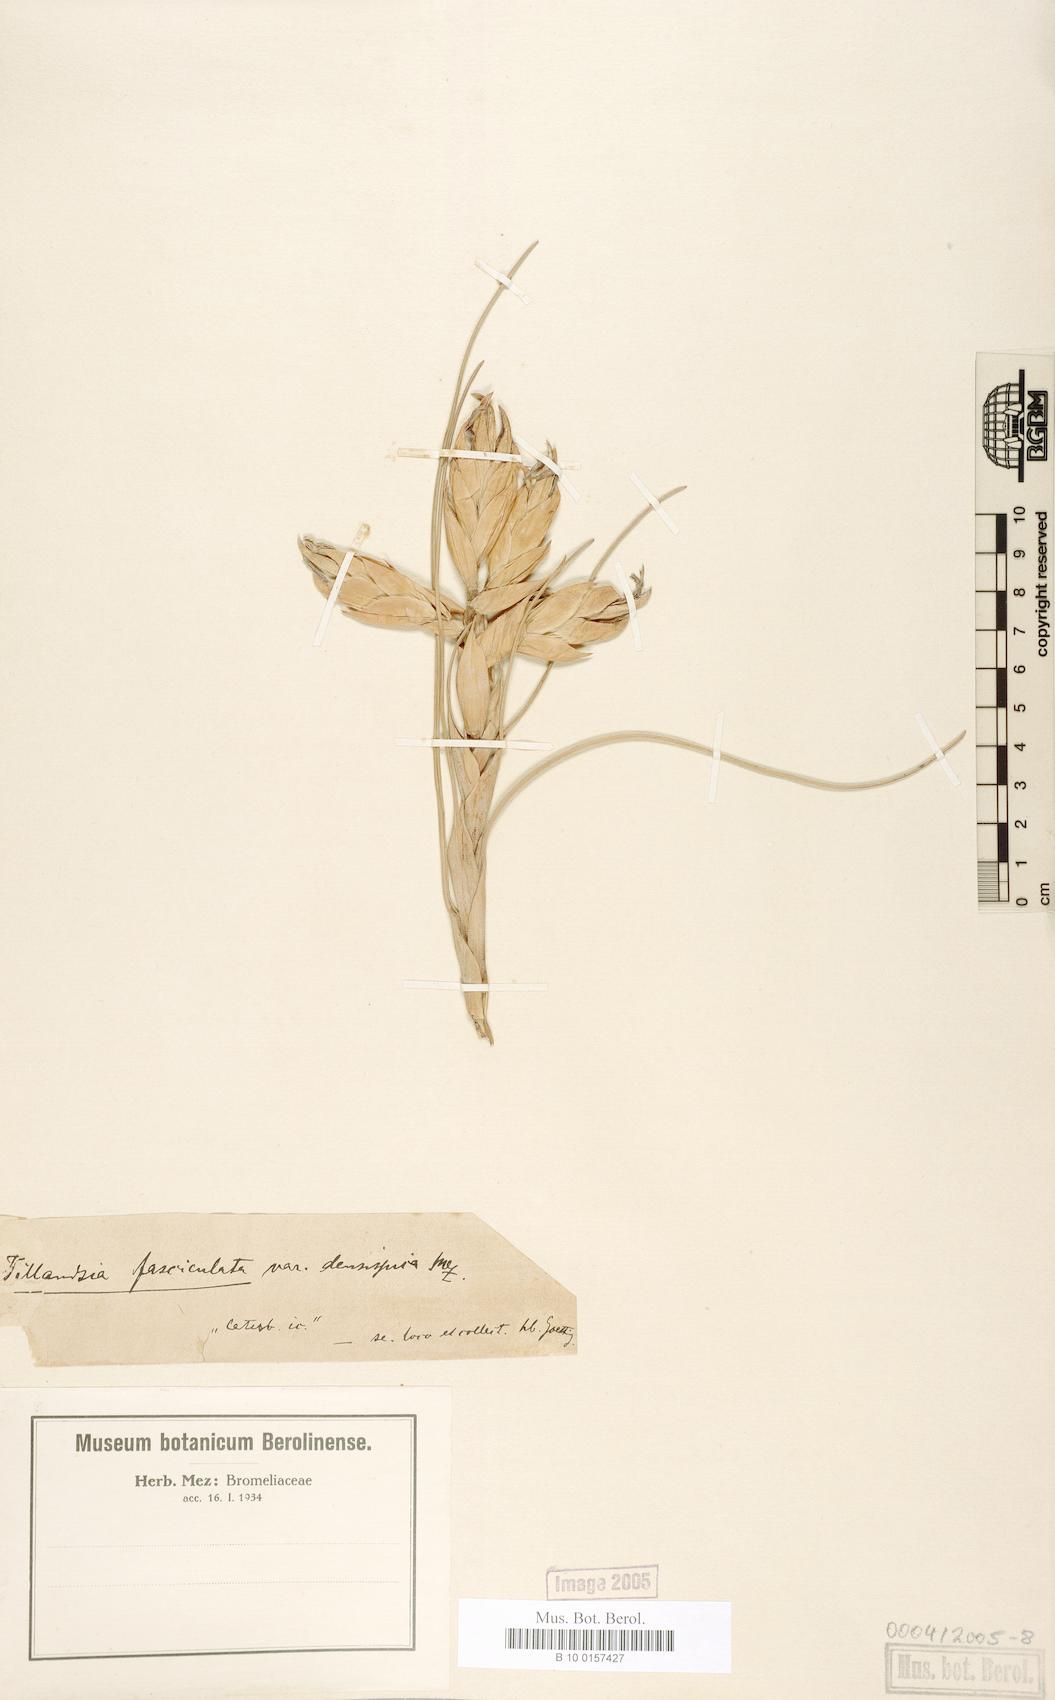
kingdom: Plantae
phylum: Tracheophyta
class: Liliopsida
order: Poales
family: Bromeliaceae
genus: Tillandsia
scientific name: Tillandsia fasciculata
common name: Giant airplant
